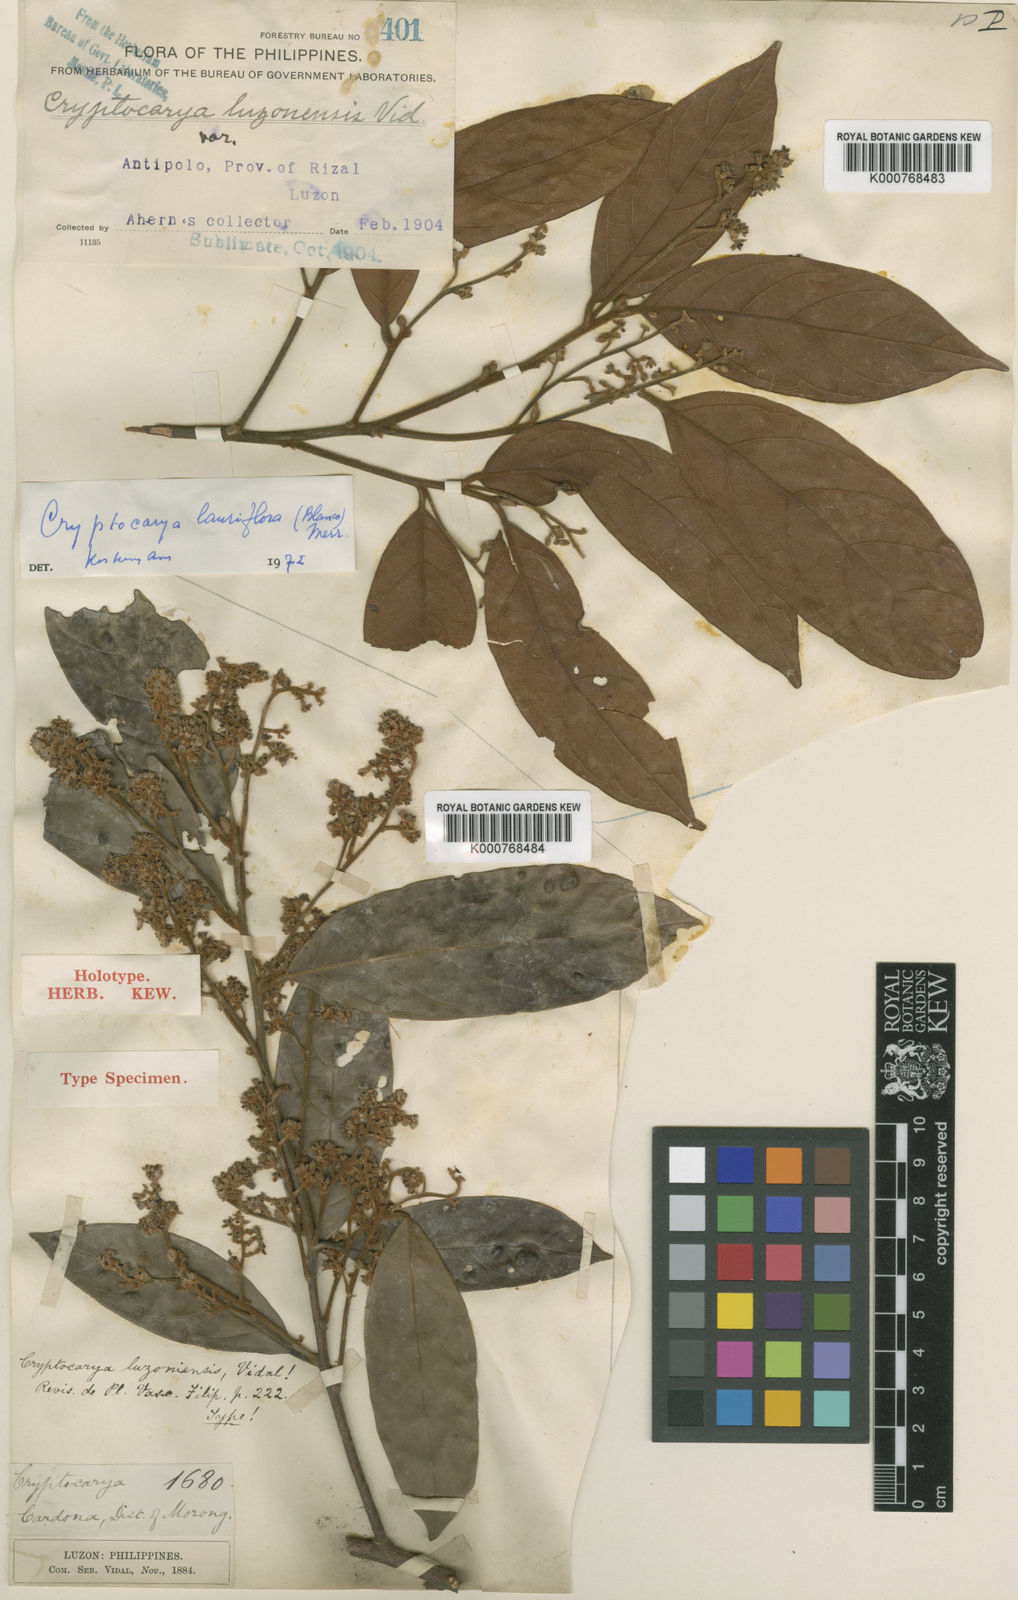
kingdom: Plantae
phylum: Tracheophyta
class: Magnoliopsida
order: Laurales
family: Lauraceae
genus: Cryptocarya
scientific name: Cryptocarya lauriflora
